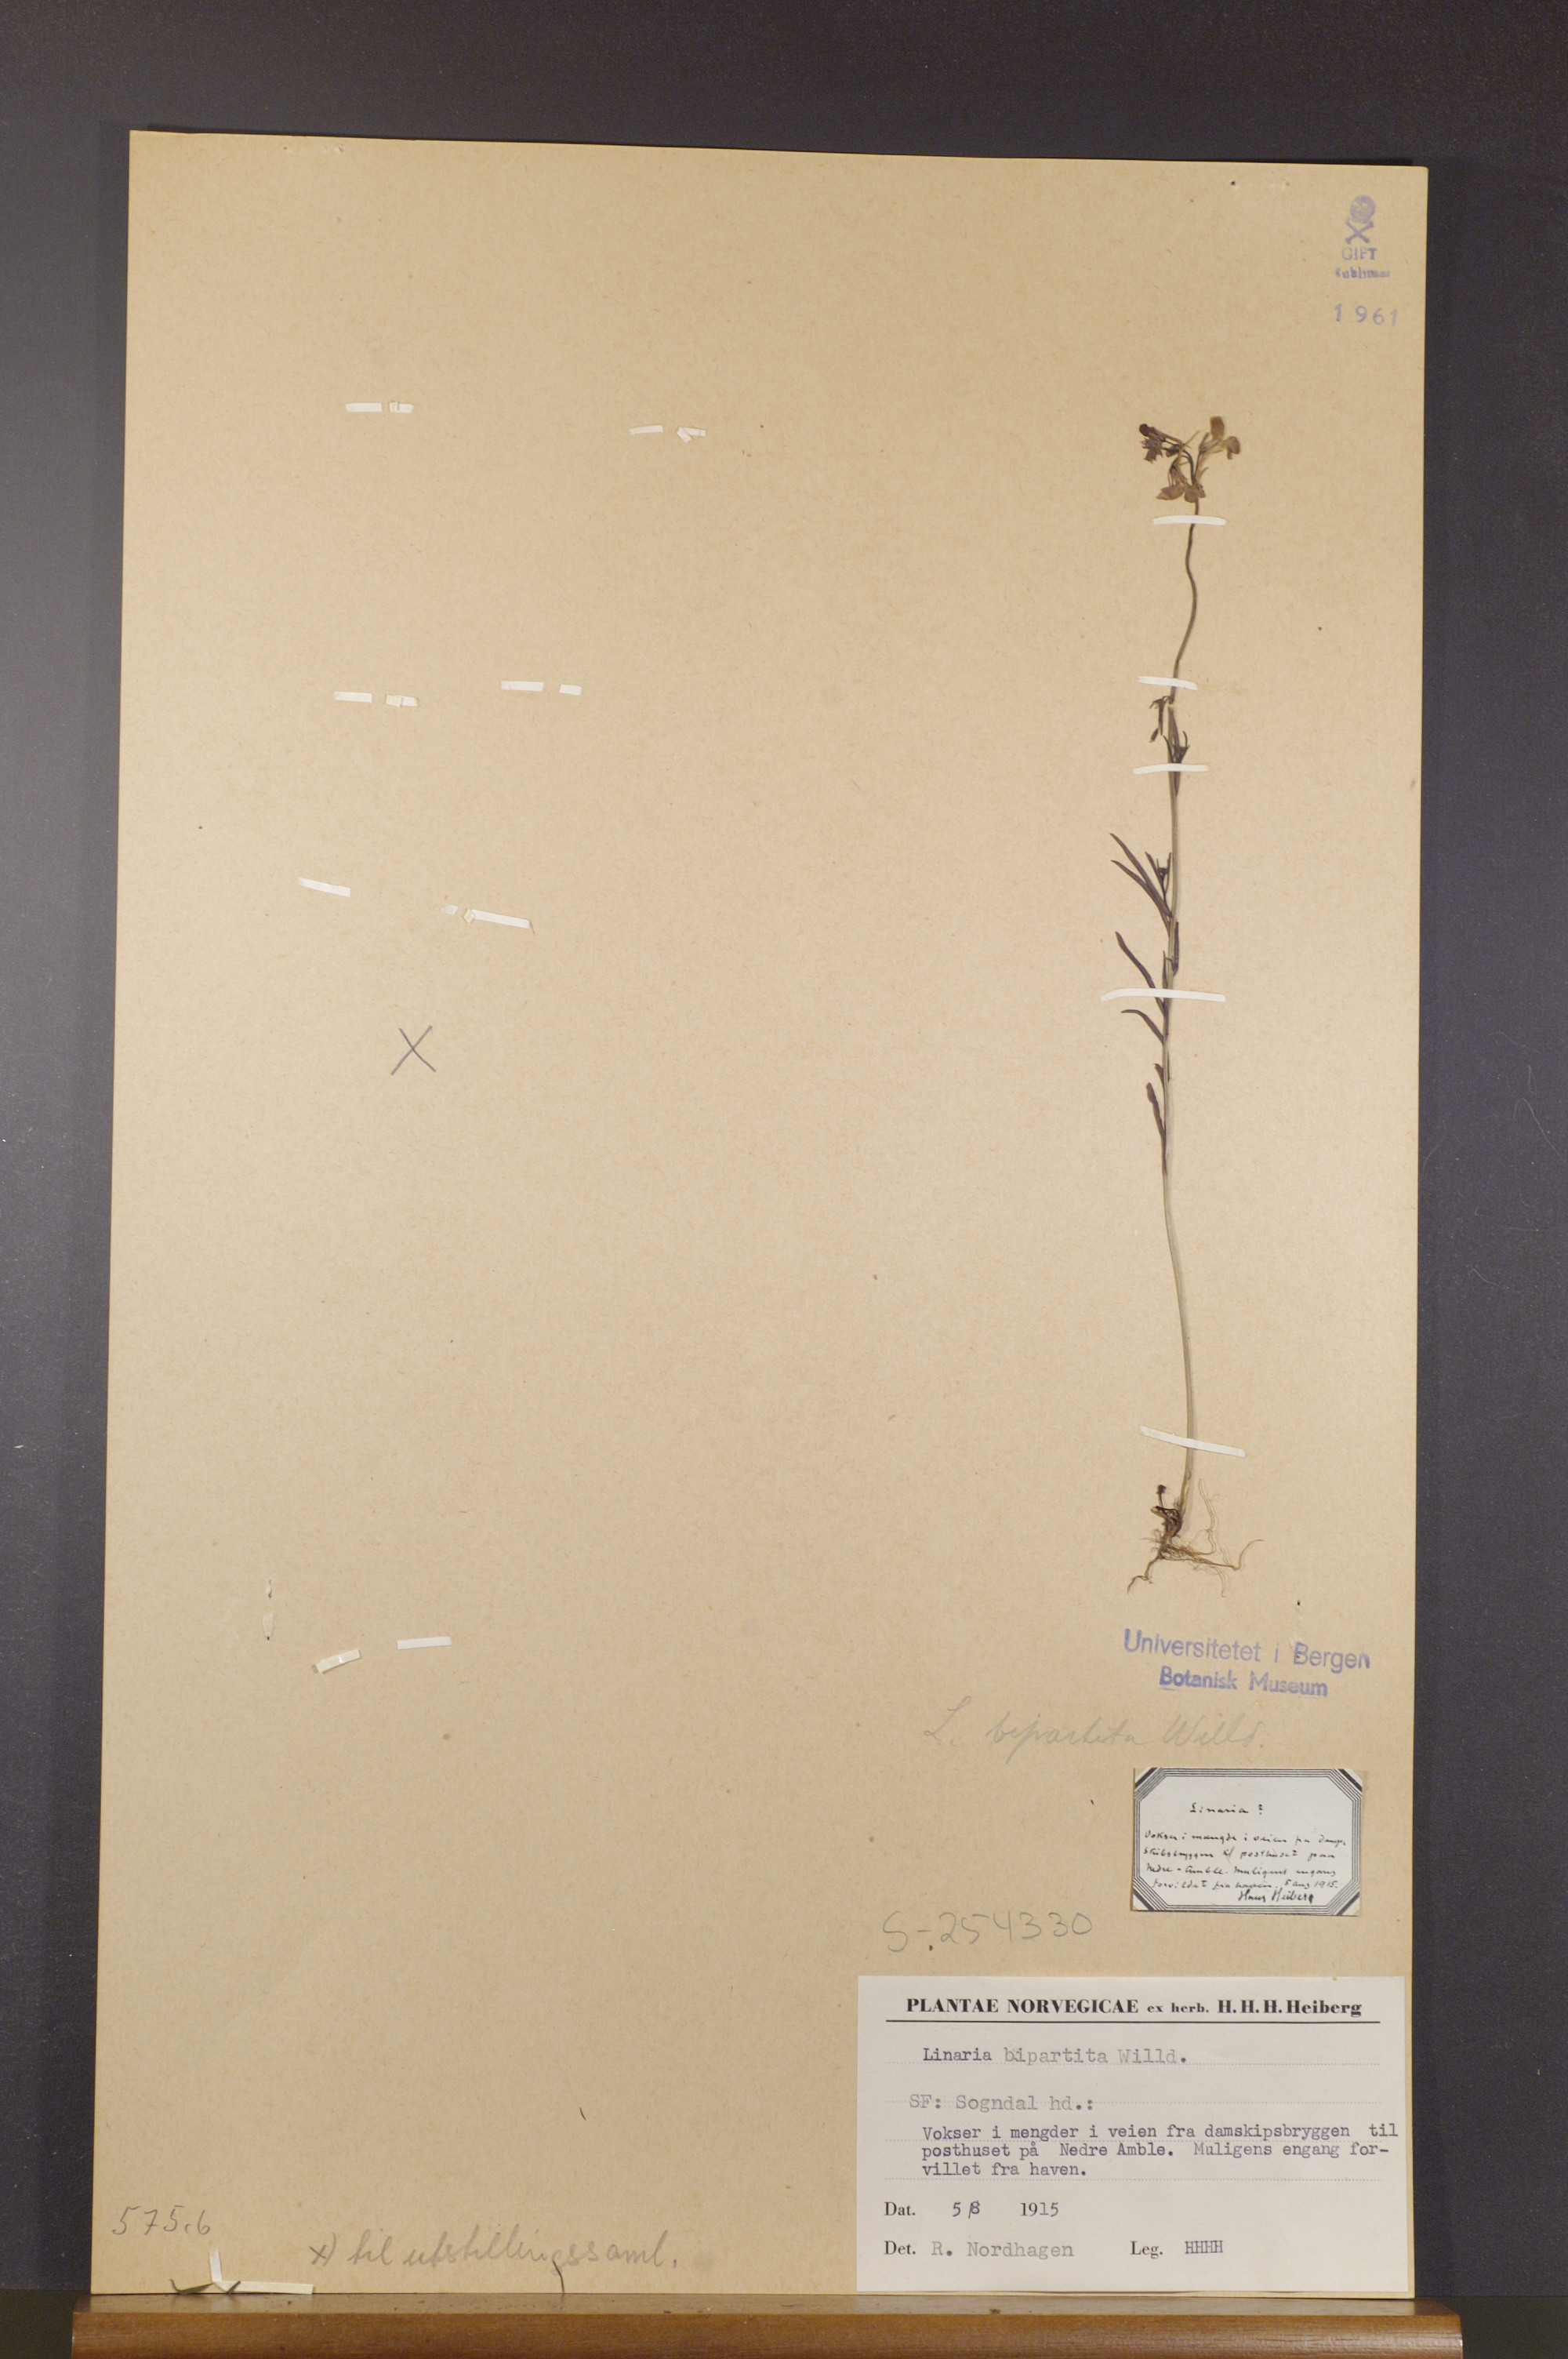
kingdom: Plantae
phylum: Tracheophyta
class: Magnoliopsida
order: Lamiales
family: Plantaginaceae
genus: Linaria
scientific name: Linaria incarnata
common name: Annual toadflax
